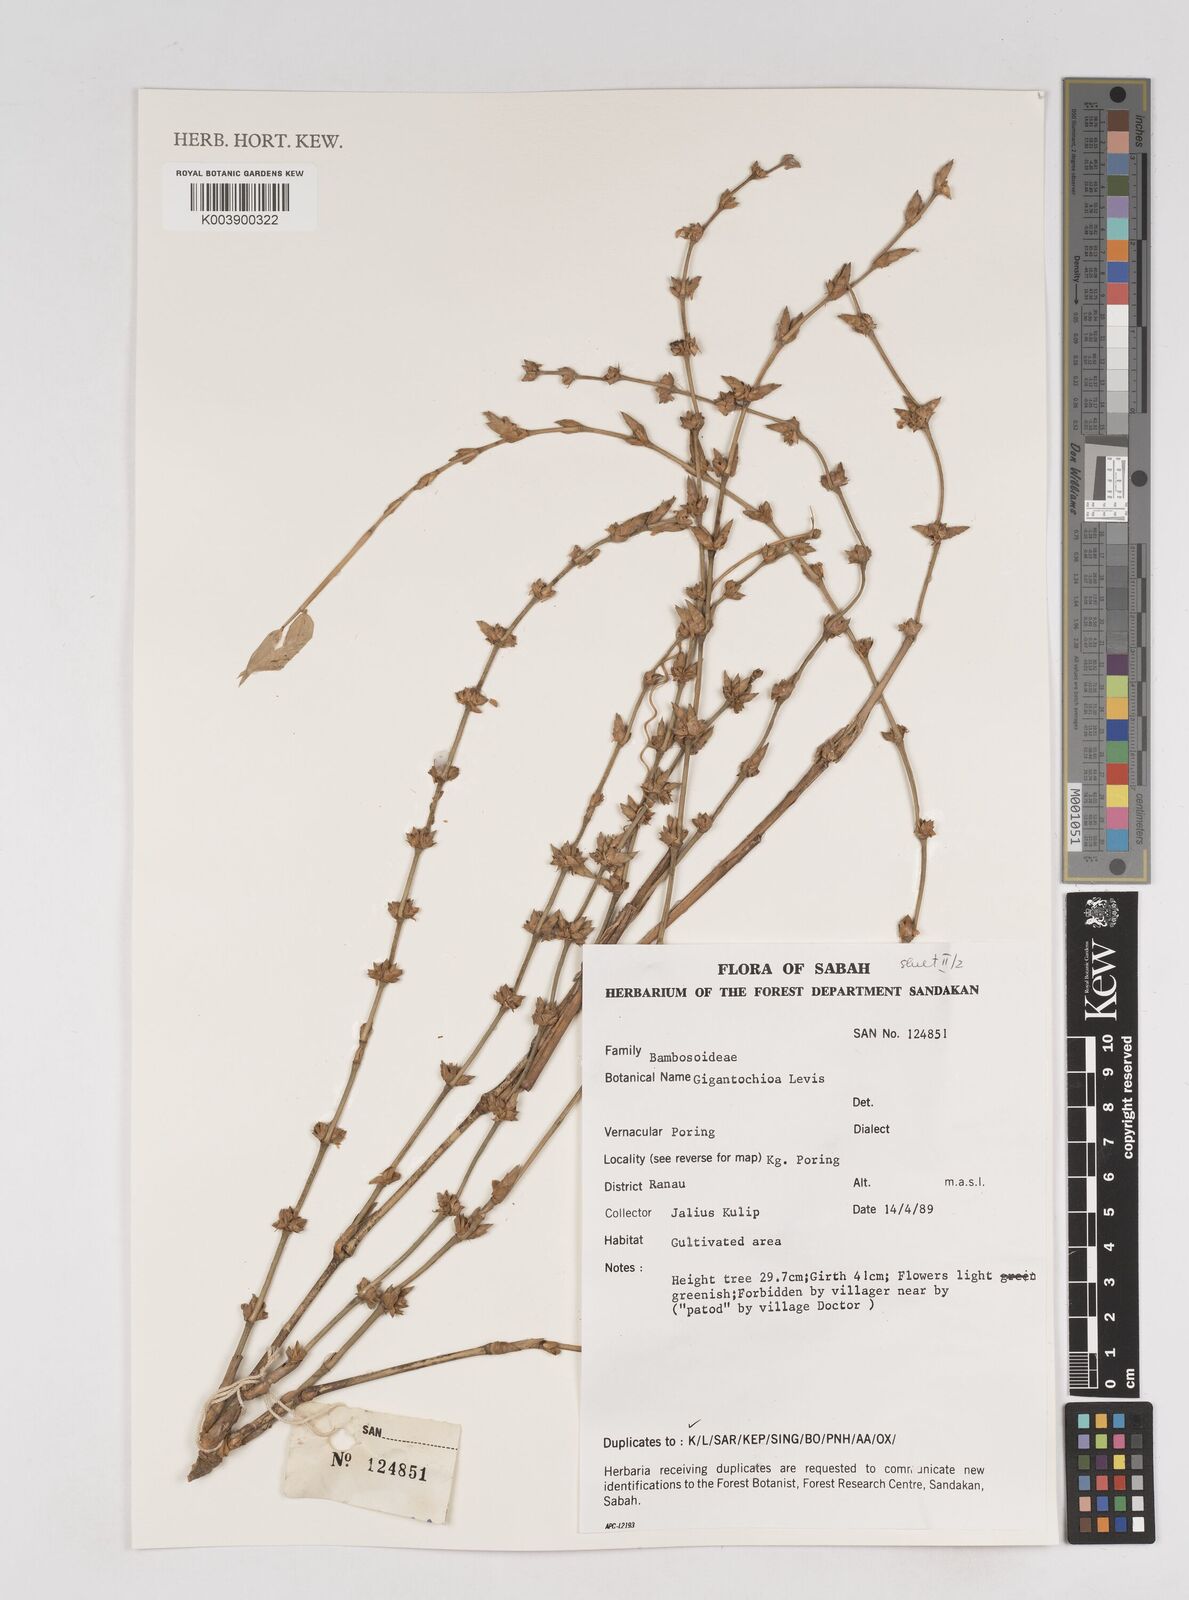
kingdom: Plantae
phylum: Tracheophyta
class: Liliopsida
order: Poales
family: Poaceae
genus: Gigantochloa
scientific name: Gigantochloa levis
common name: Smooth-shoot gigantochloa
